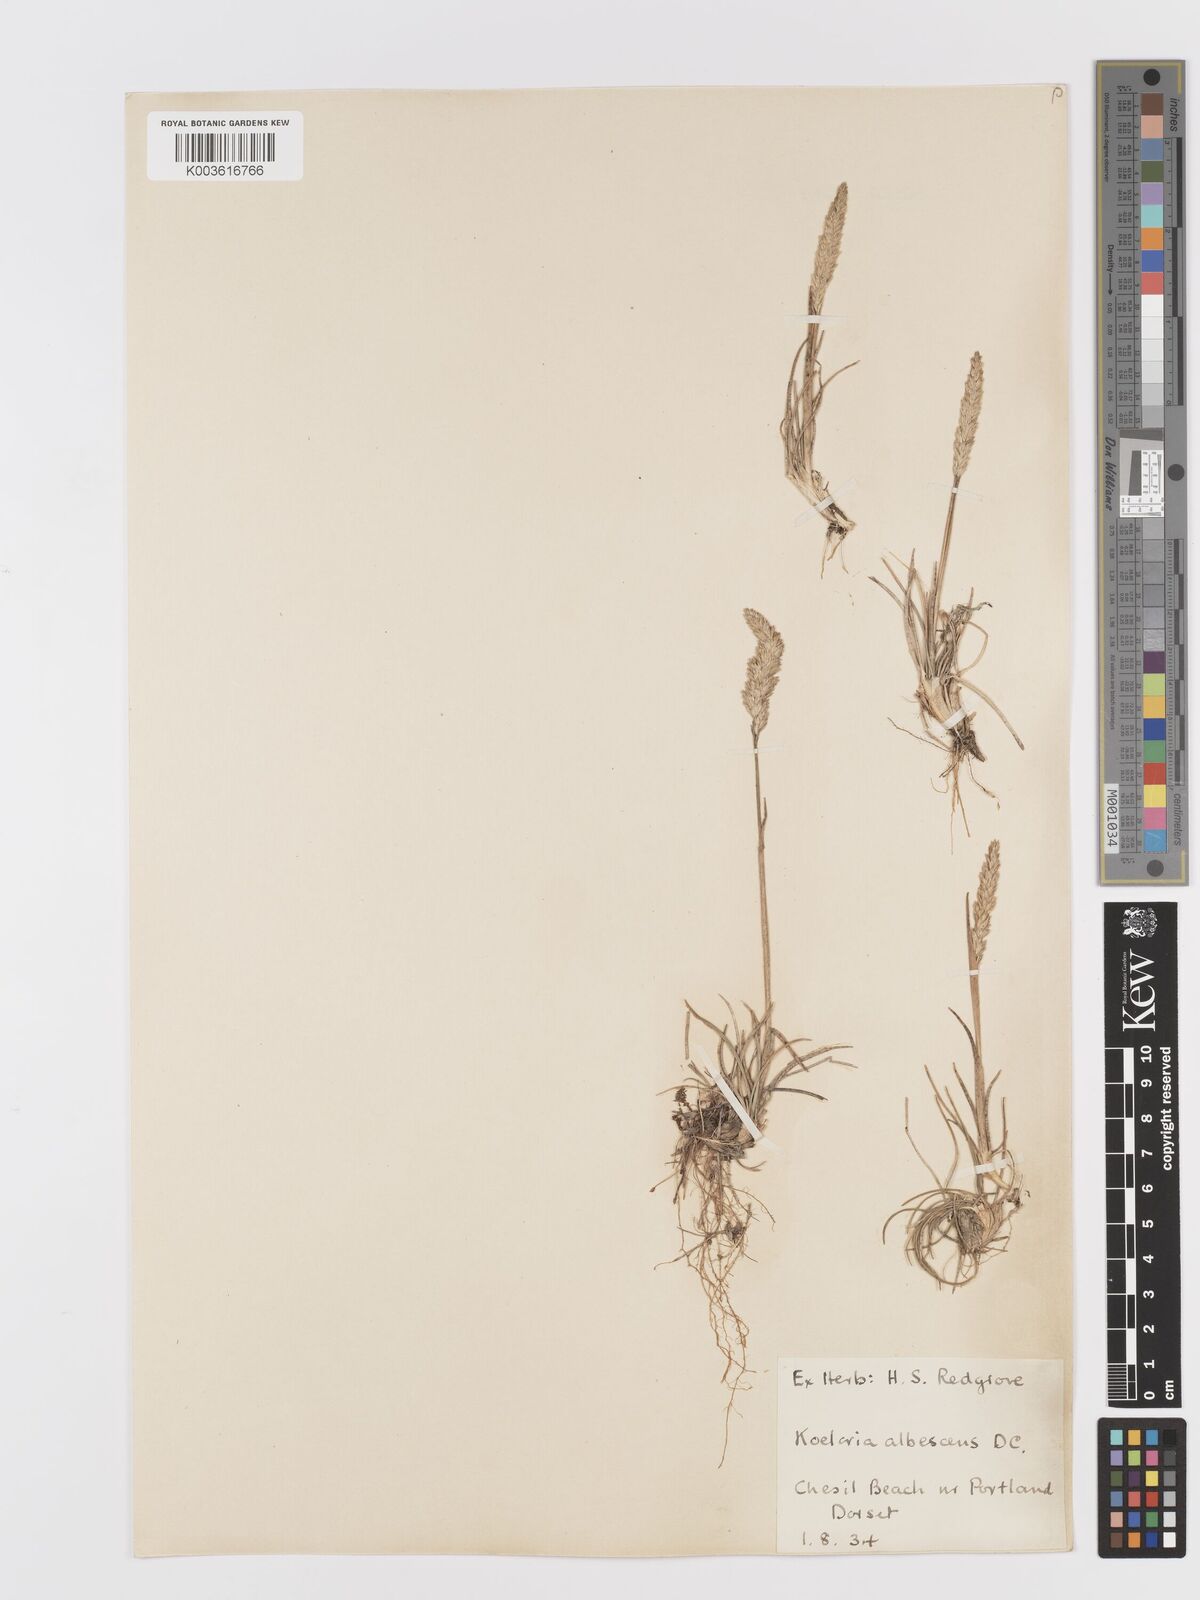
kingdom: Plantae
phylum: Tracheophyta
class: Liliopsida
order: Poales
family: Poaceae
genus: Koeleria
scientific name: Koeleria
